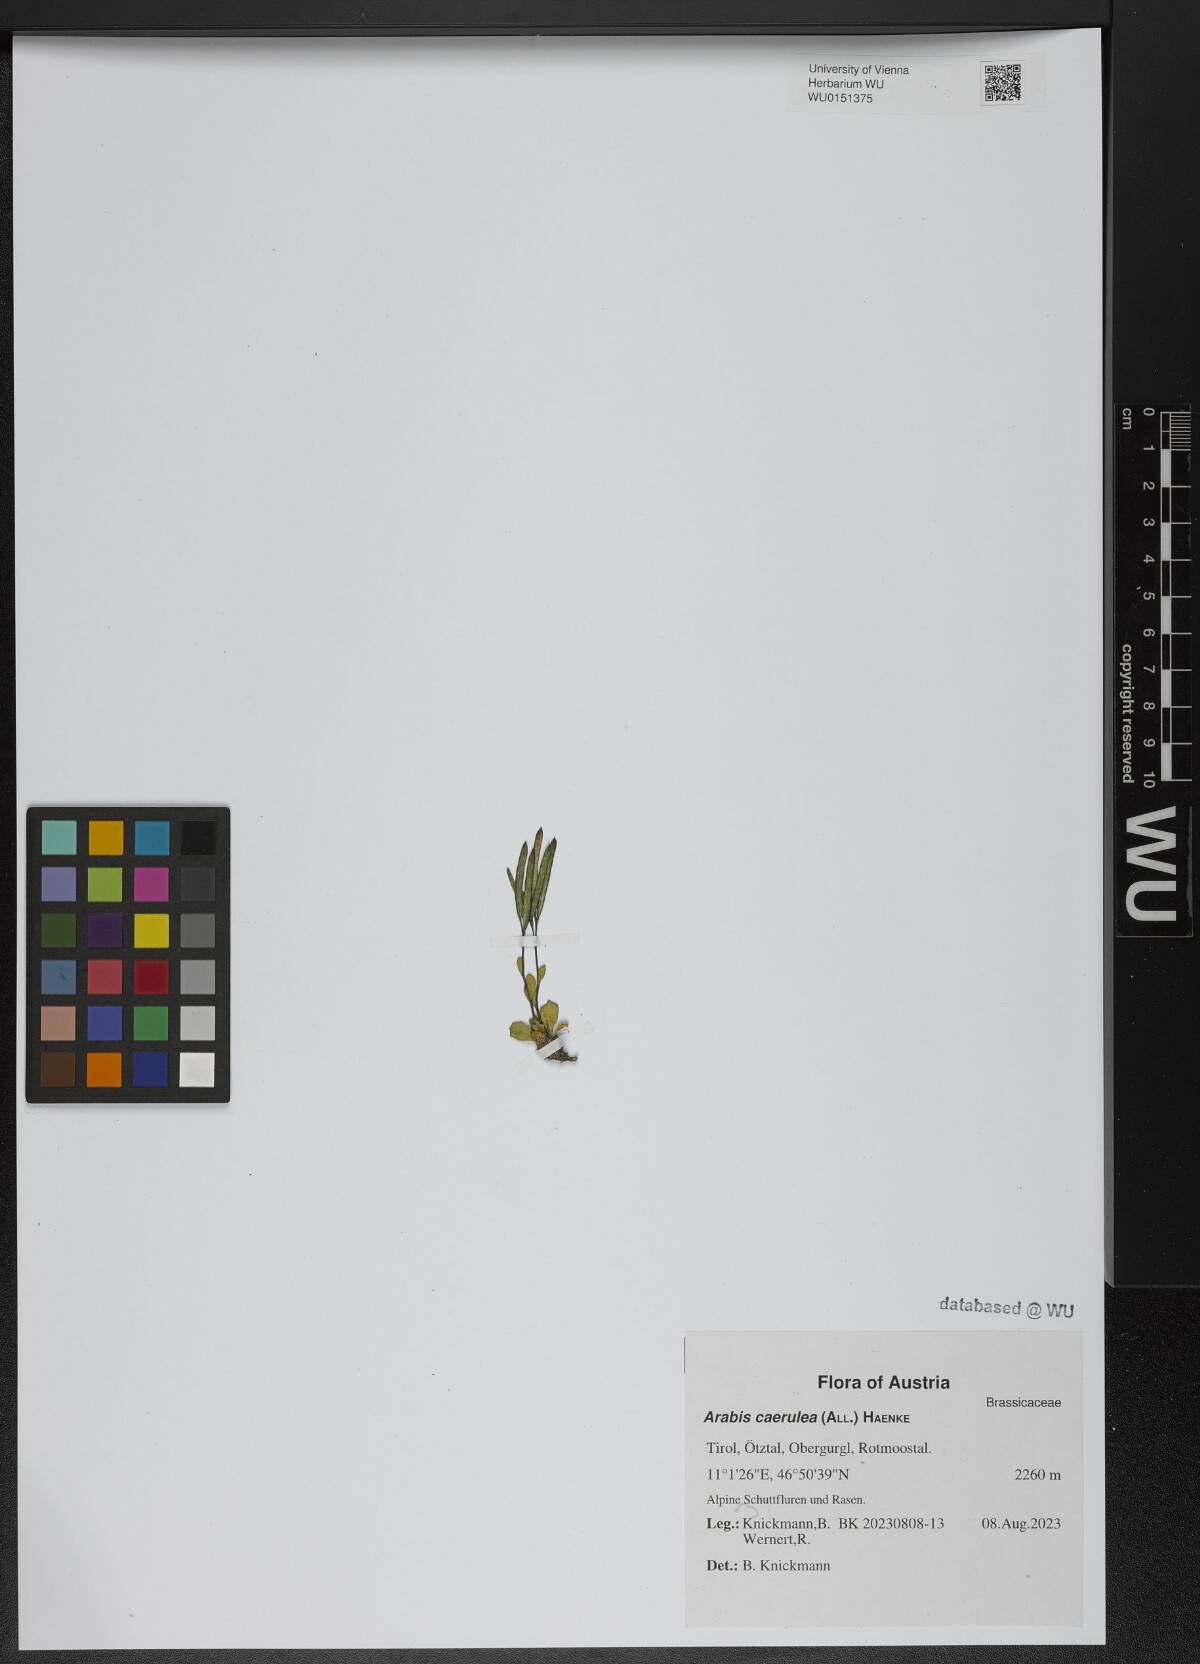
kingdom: Plantae
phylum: Tracheophyta
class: Magnoliopsida
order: Brassicales
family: Brassicaceae
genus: Arabis
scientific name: Arabis caerulea
